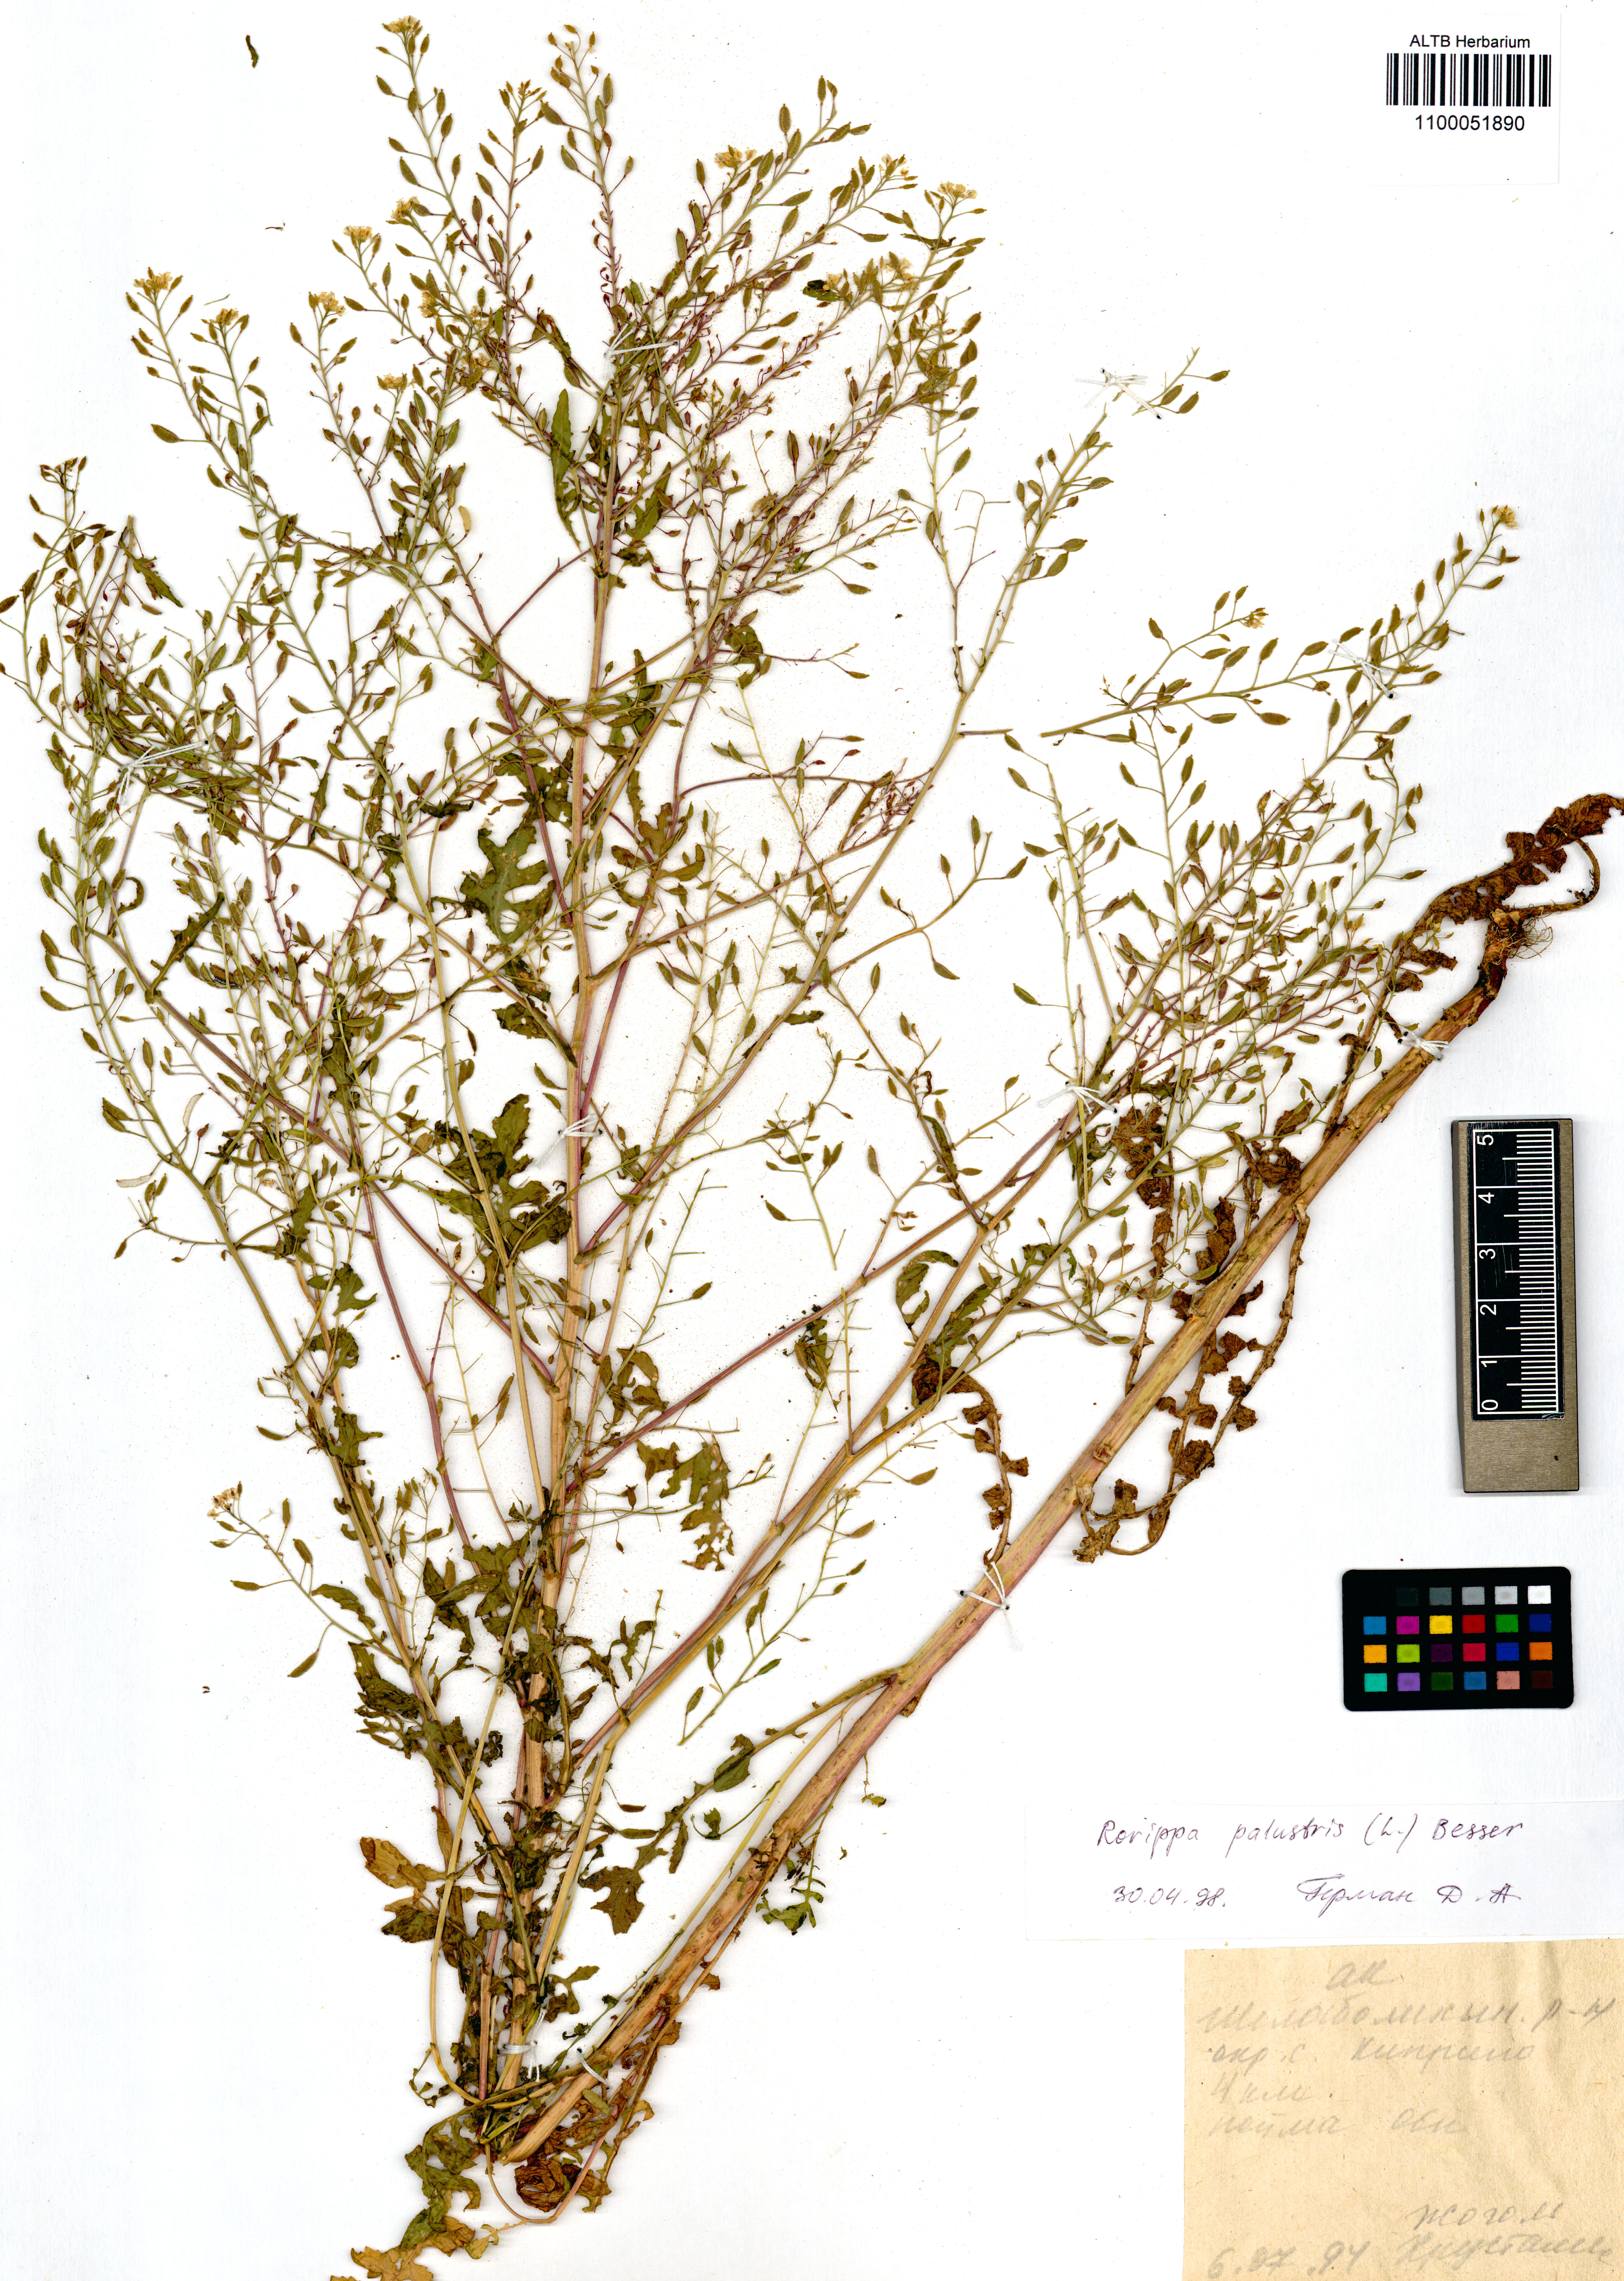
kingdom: Plantae
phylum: Tracheophyta
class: Magnoliopsida
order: Brassicales
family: Brassicaceae
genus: Rorippa
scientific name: Rorippa palustris
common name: Marsh yellow-cress
